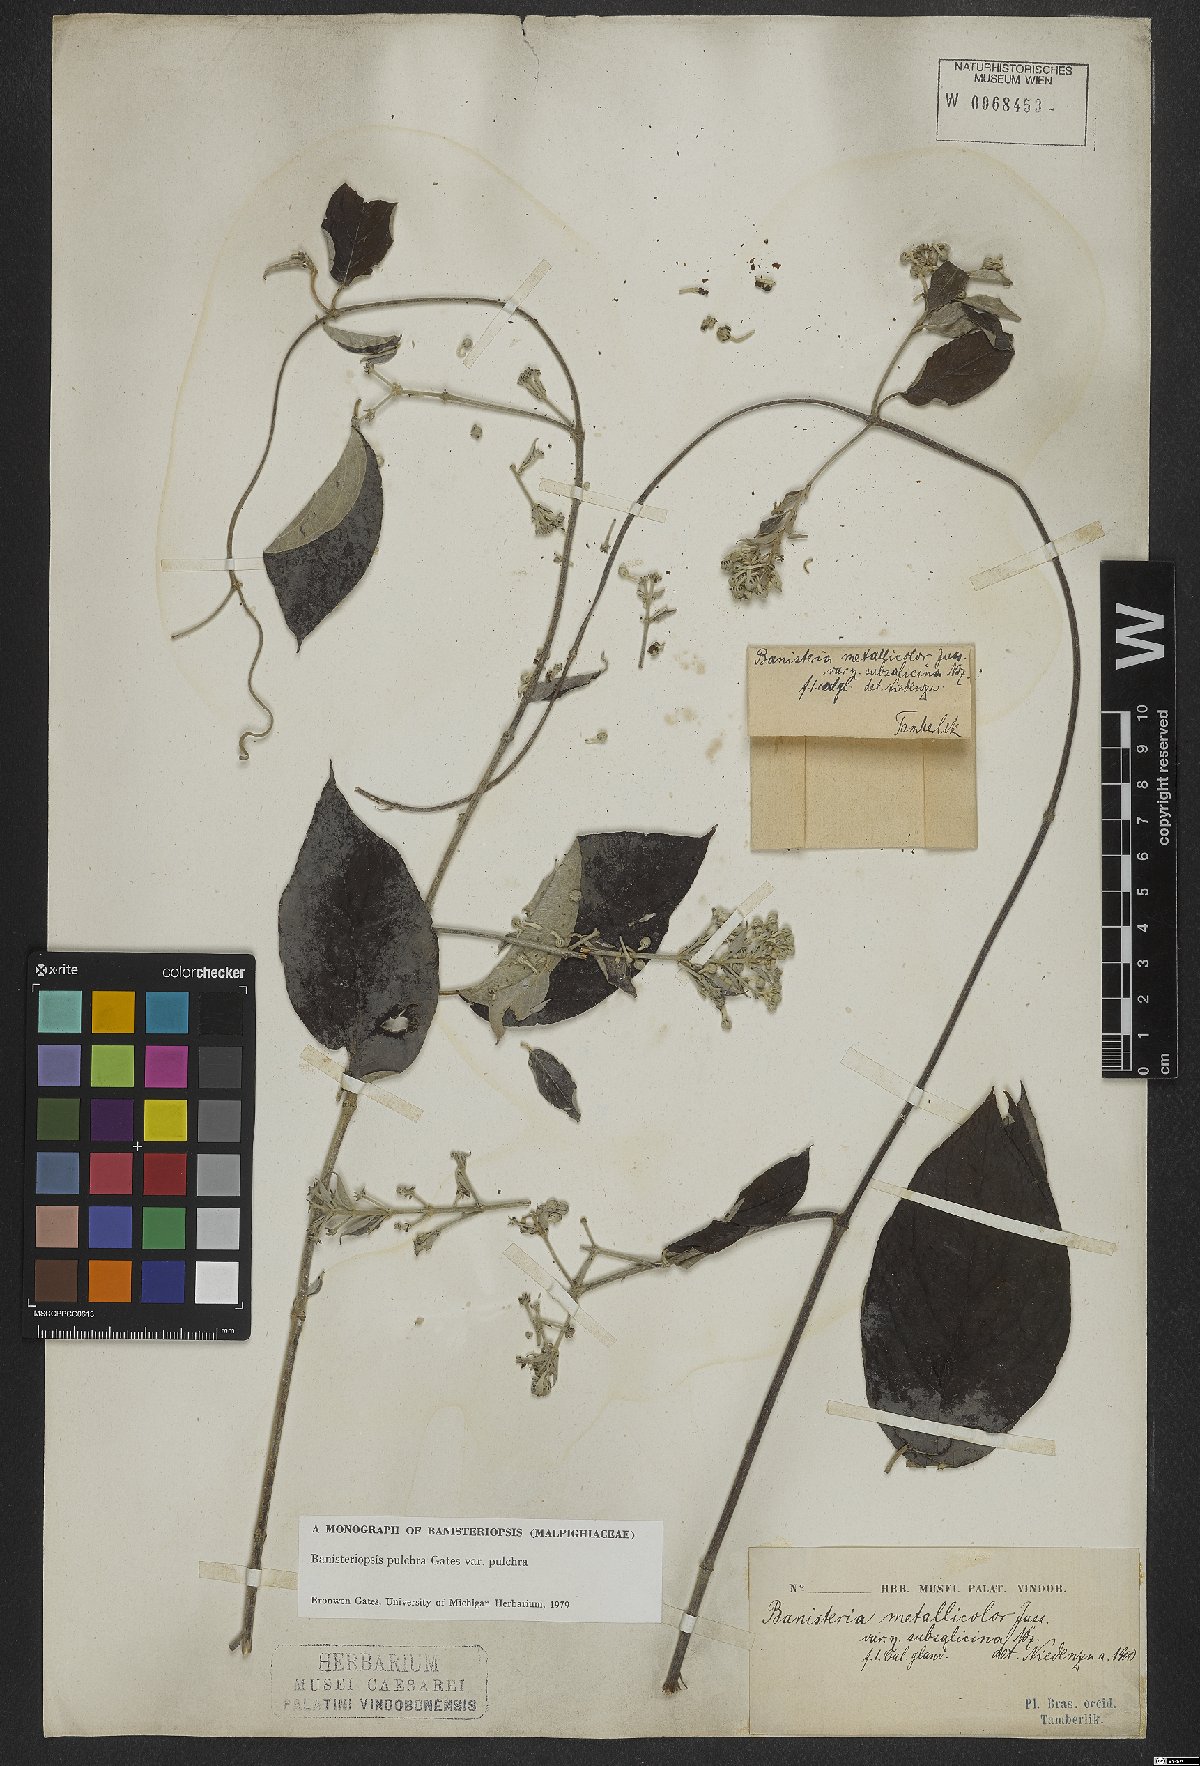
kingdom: Plantae
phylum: Tracheophyta
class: Magnoliopsida
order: Malpighiales
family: Malpighiaceae
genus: Banisteriopsis
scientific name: Banisteriopsis pulchra
